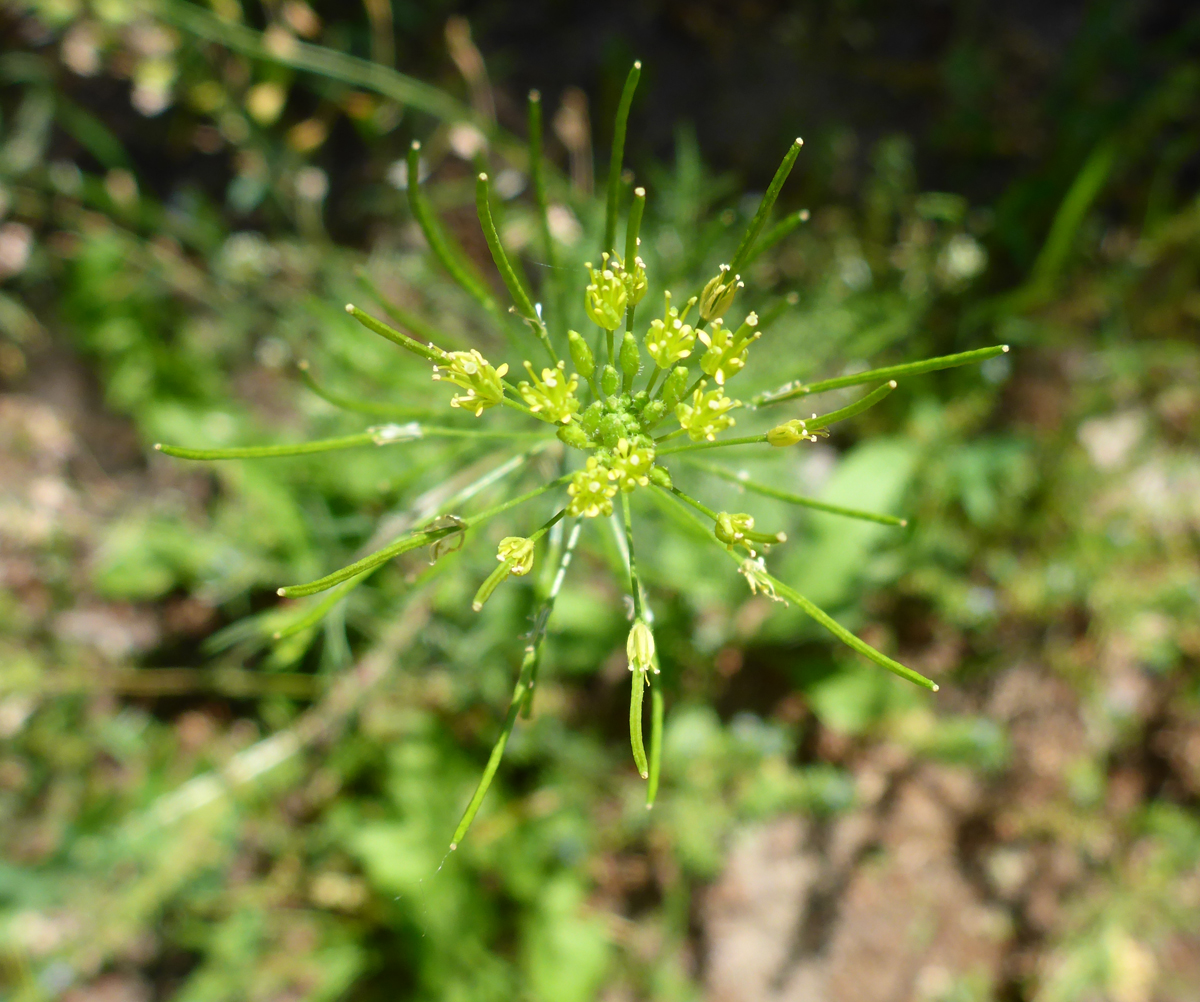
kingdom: Plantae
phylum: Tracheophyta
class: Magnoliopsida
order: Brassicales
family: Brassicaceae
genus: Descurainia
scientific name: Descurainia sophia
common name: Flixweed
